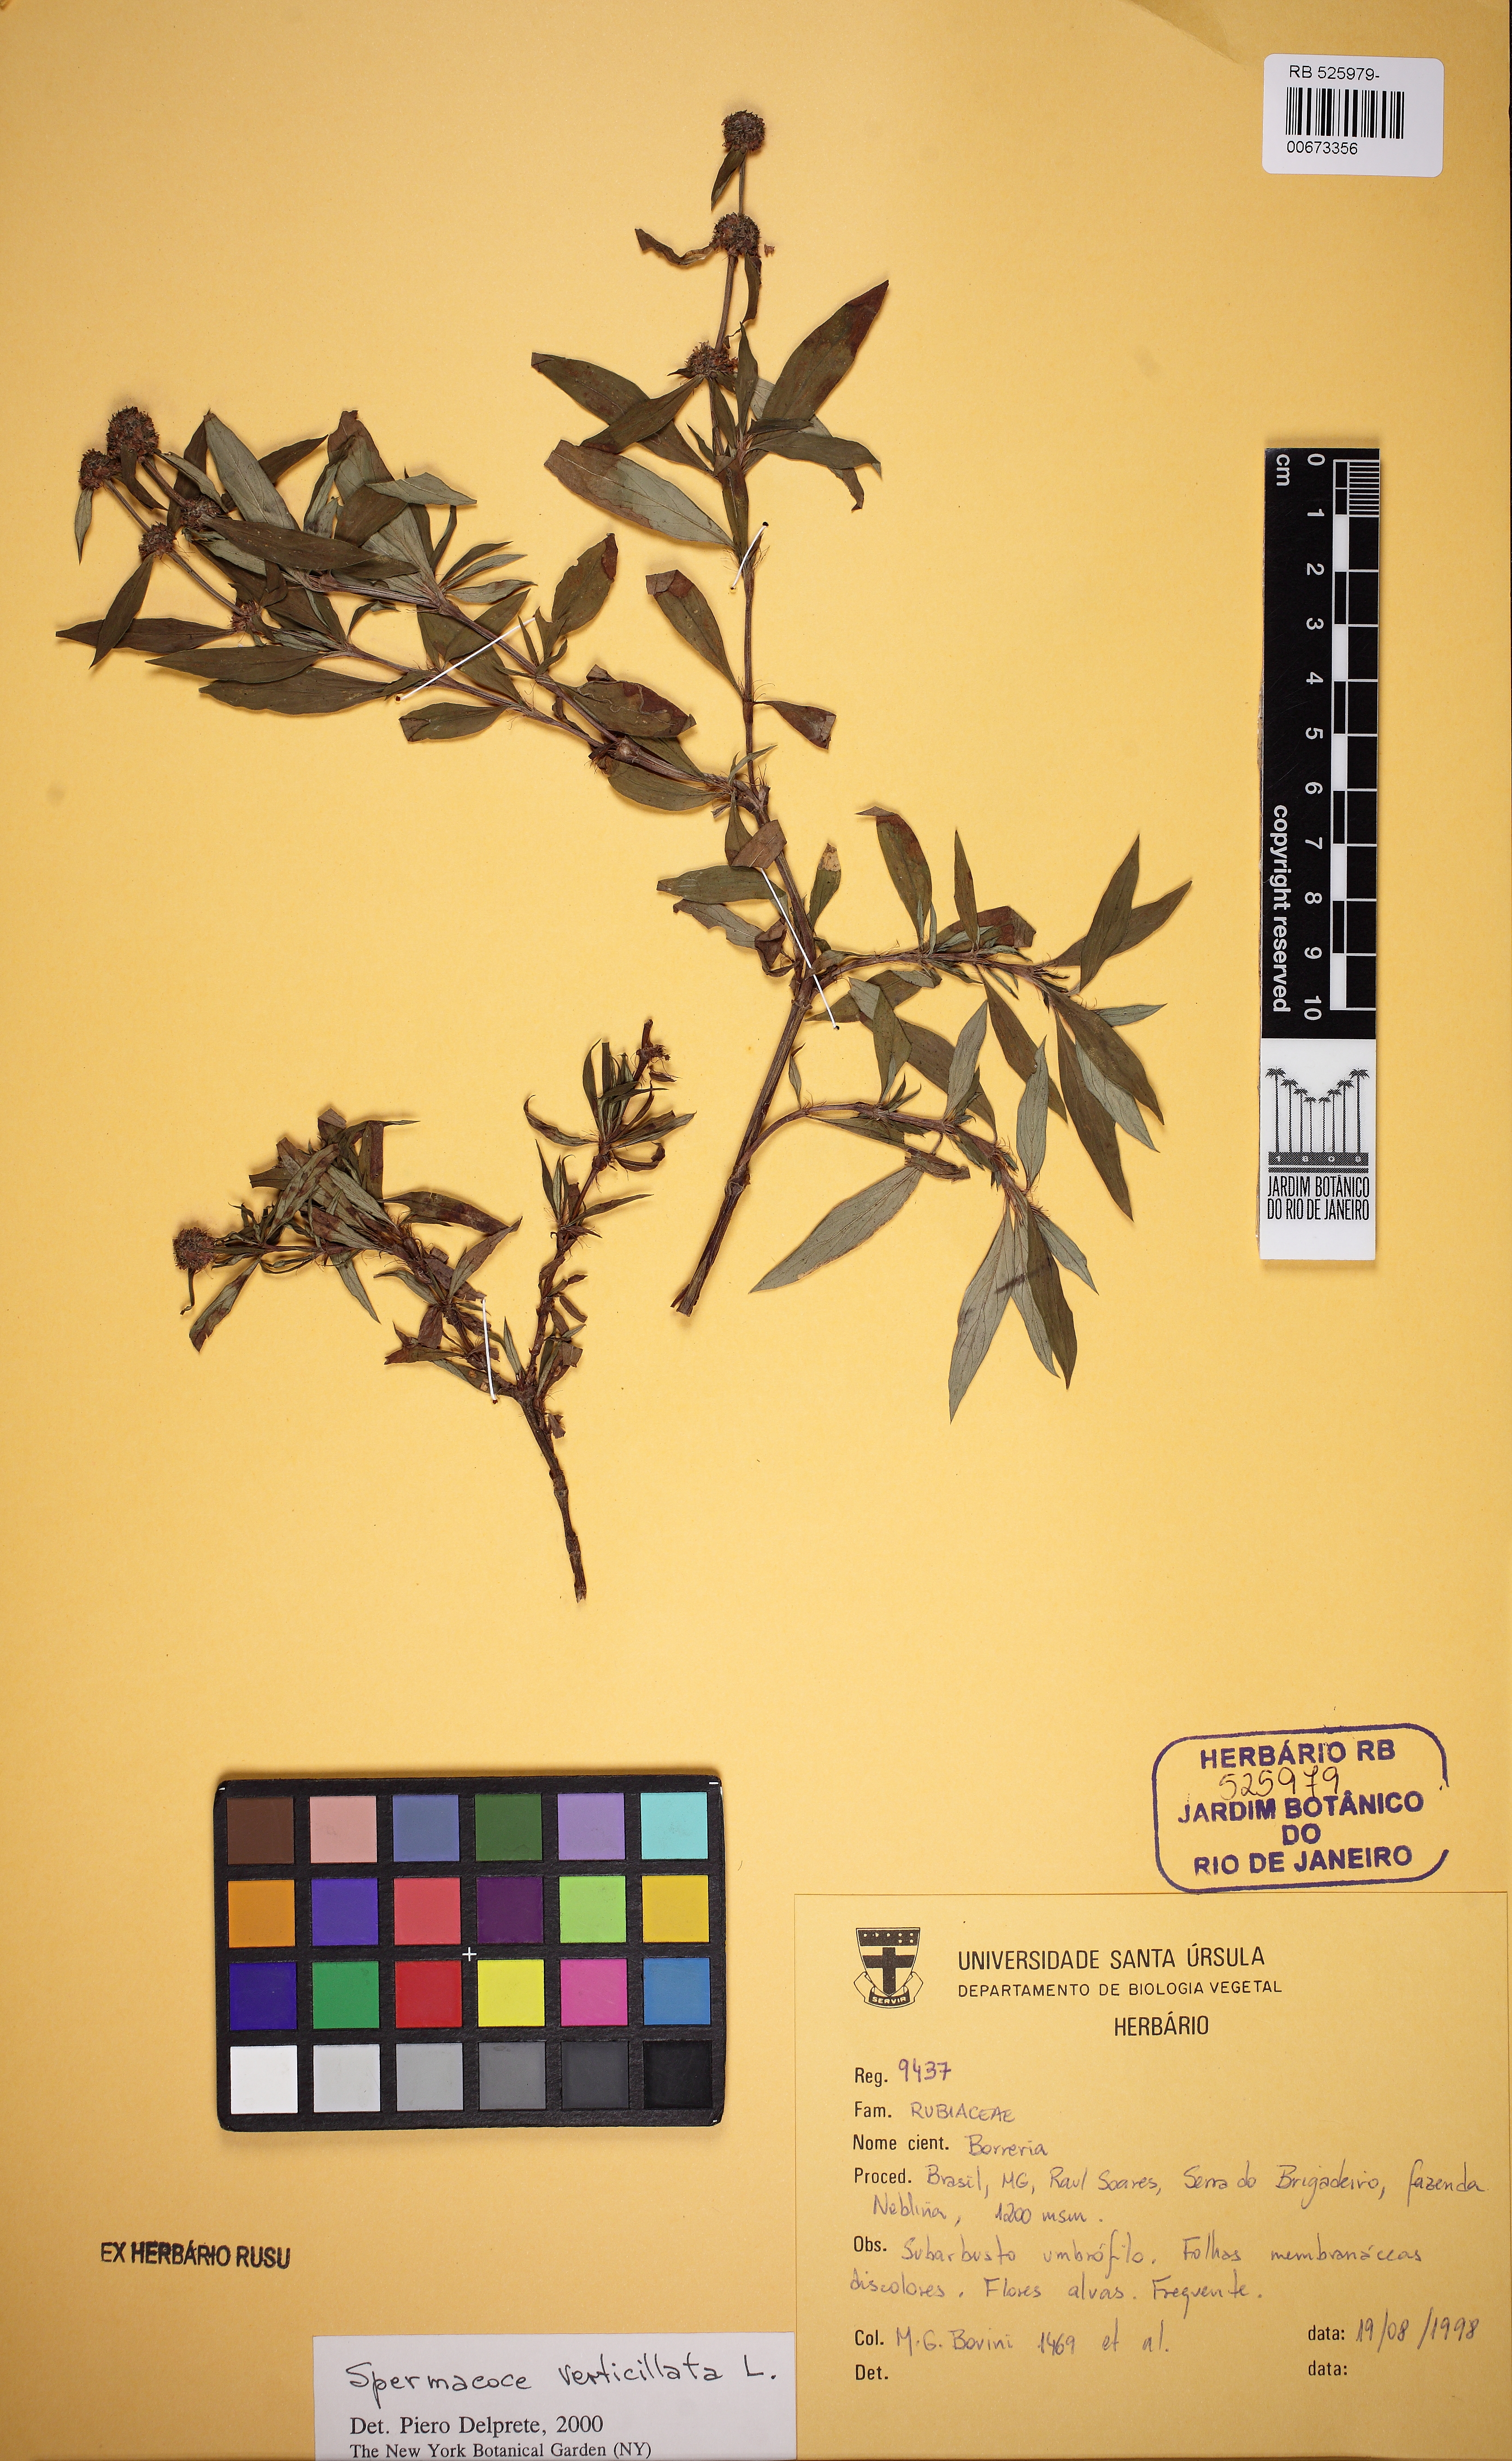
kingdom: Plantae
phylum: Tracheophyta
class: Magnoliopsida
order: Gentianales
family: Rubiaceae
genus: Spermacoce
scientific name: Spermacoce verticillata
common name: Shrubby false buttonweed
